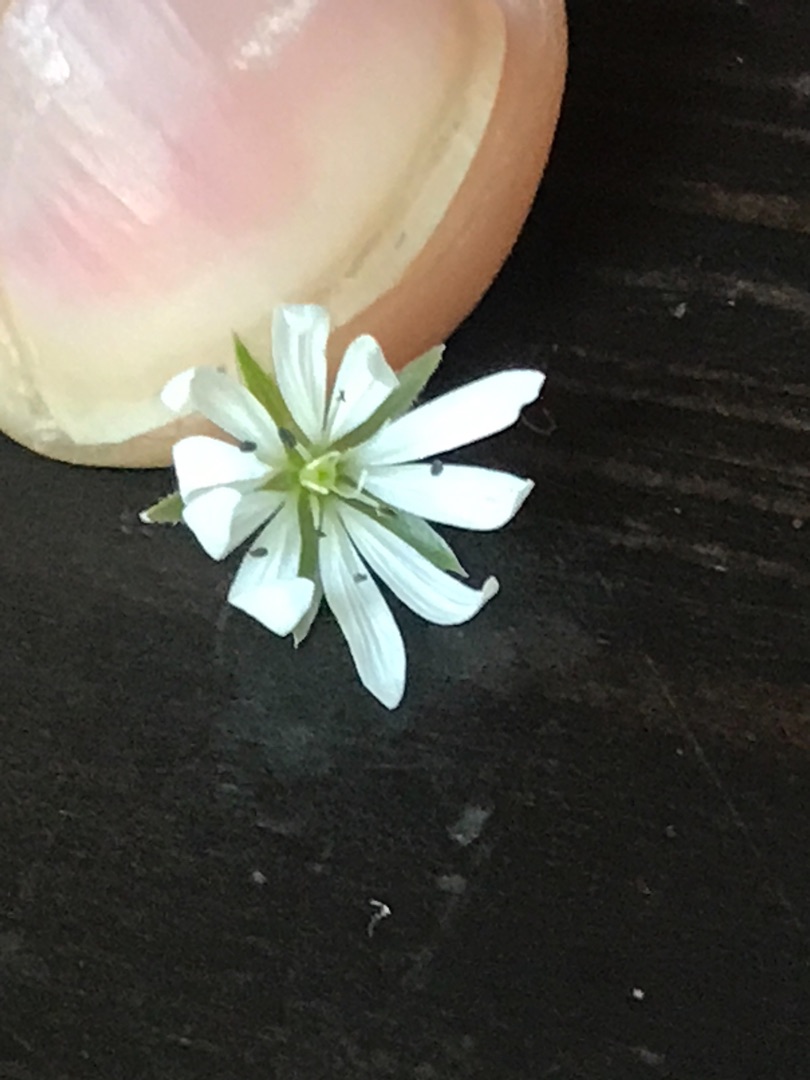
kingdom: Plantae
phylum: Tracheophyta
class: Magnoliopsida
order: Caryophyllales
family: Caryophyllaceae
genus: Stellaria
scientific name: Stellaria graminea
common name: Græsbladet fladstjerne
